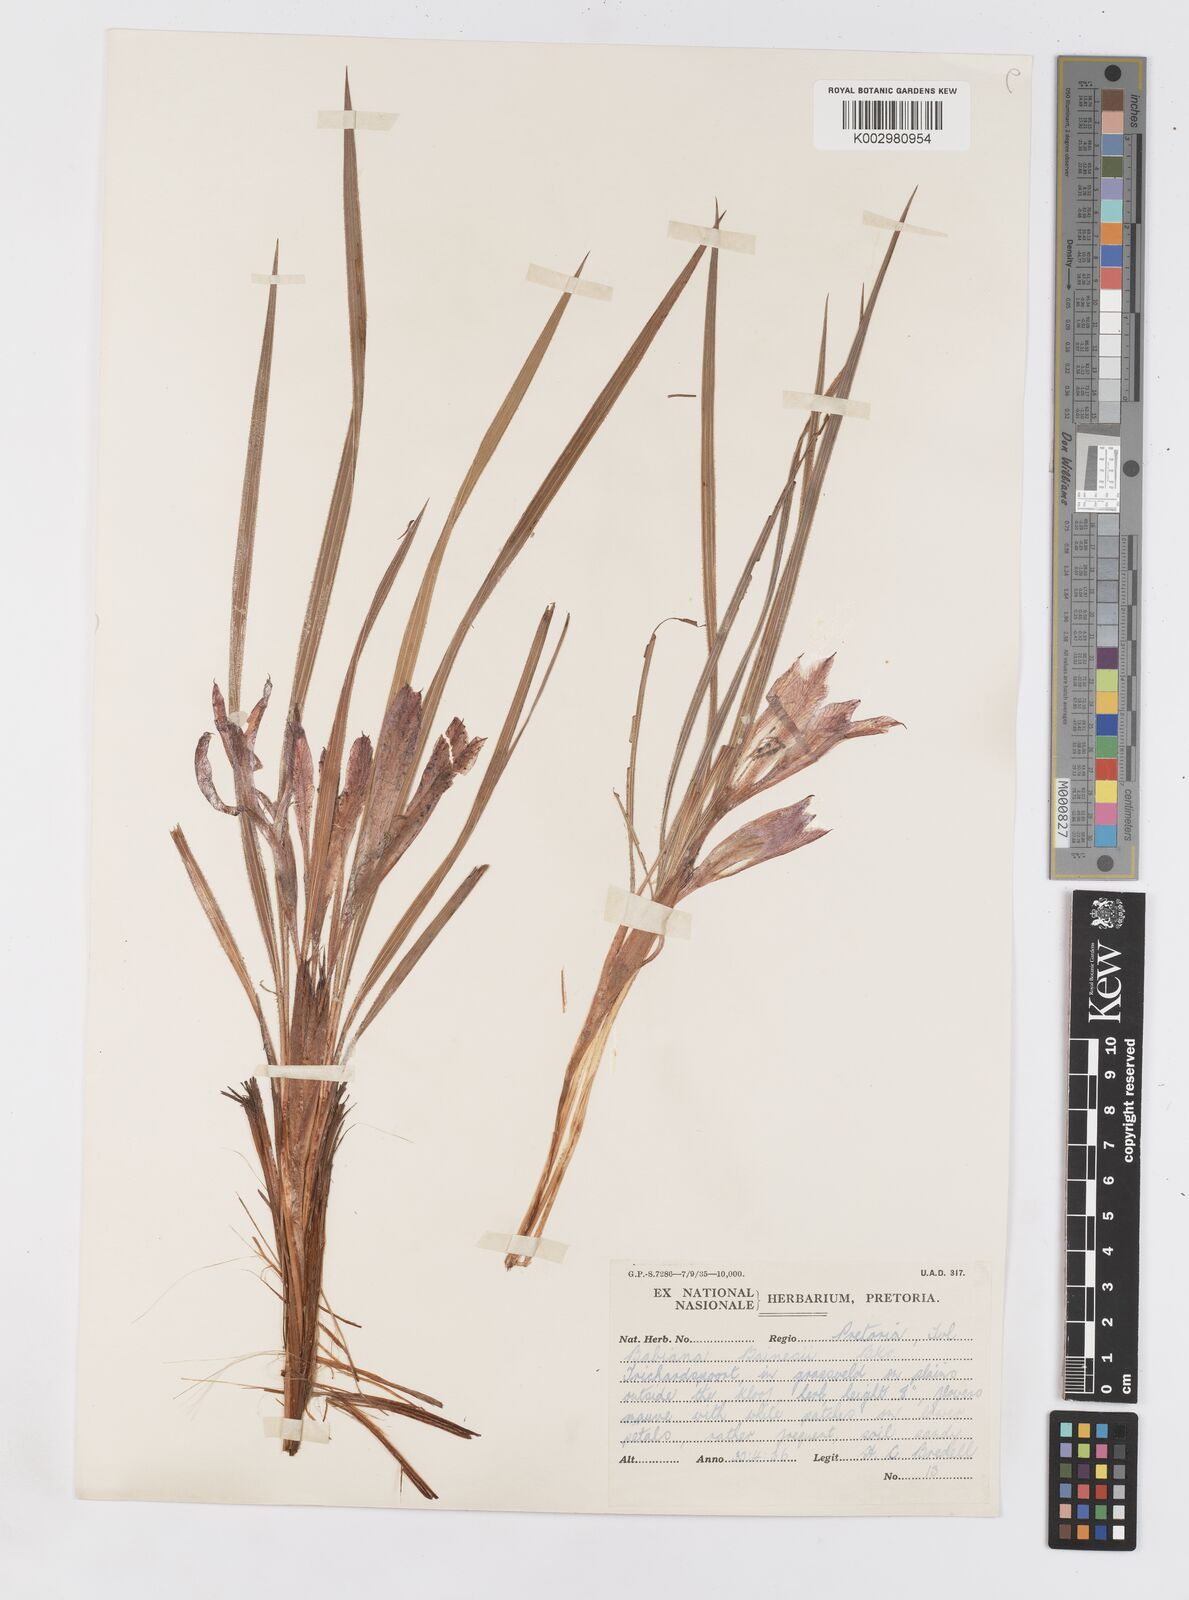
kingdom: Plantae
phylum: Tracheophyta
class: Liliopsida
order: Asparagales
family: Iridaceae
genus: Babiana
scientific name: Babiana bainesii
